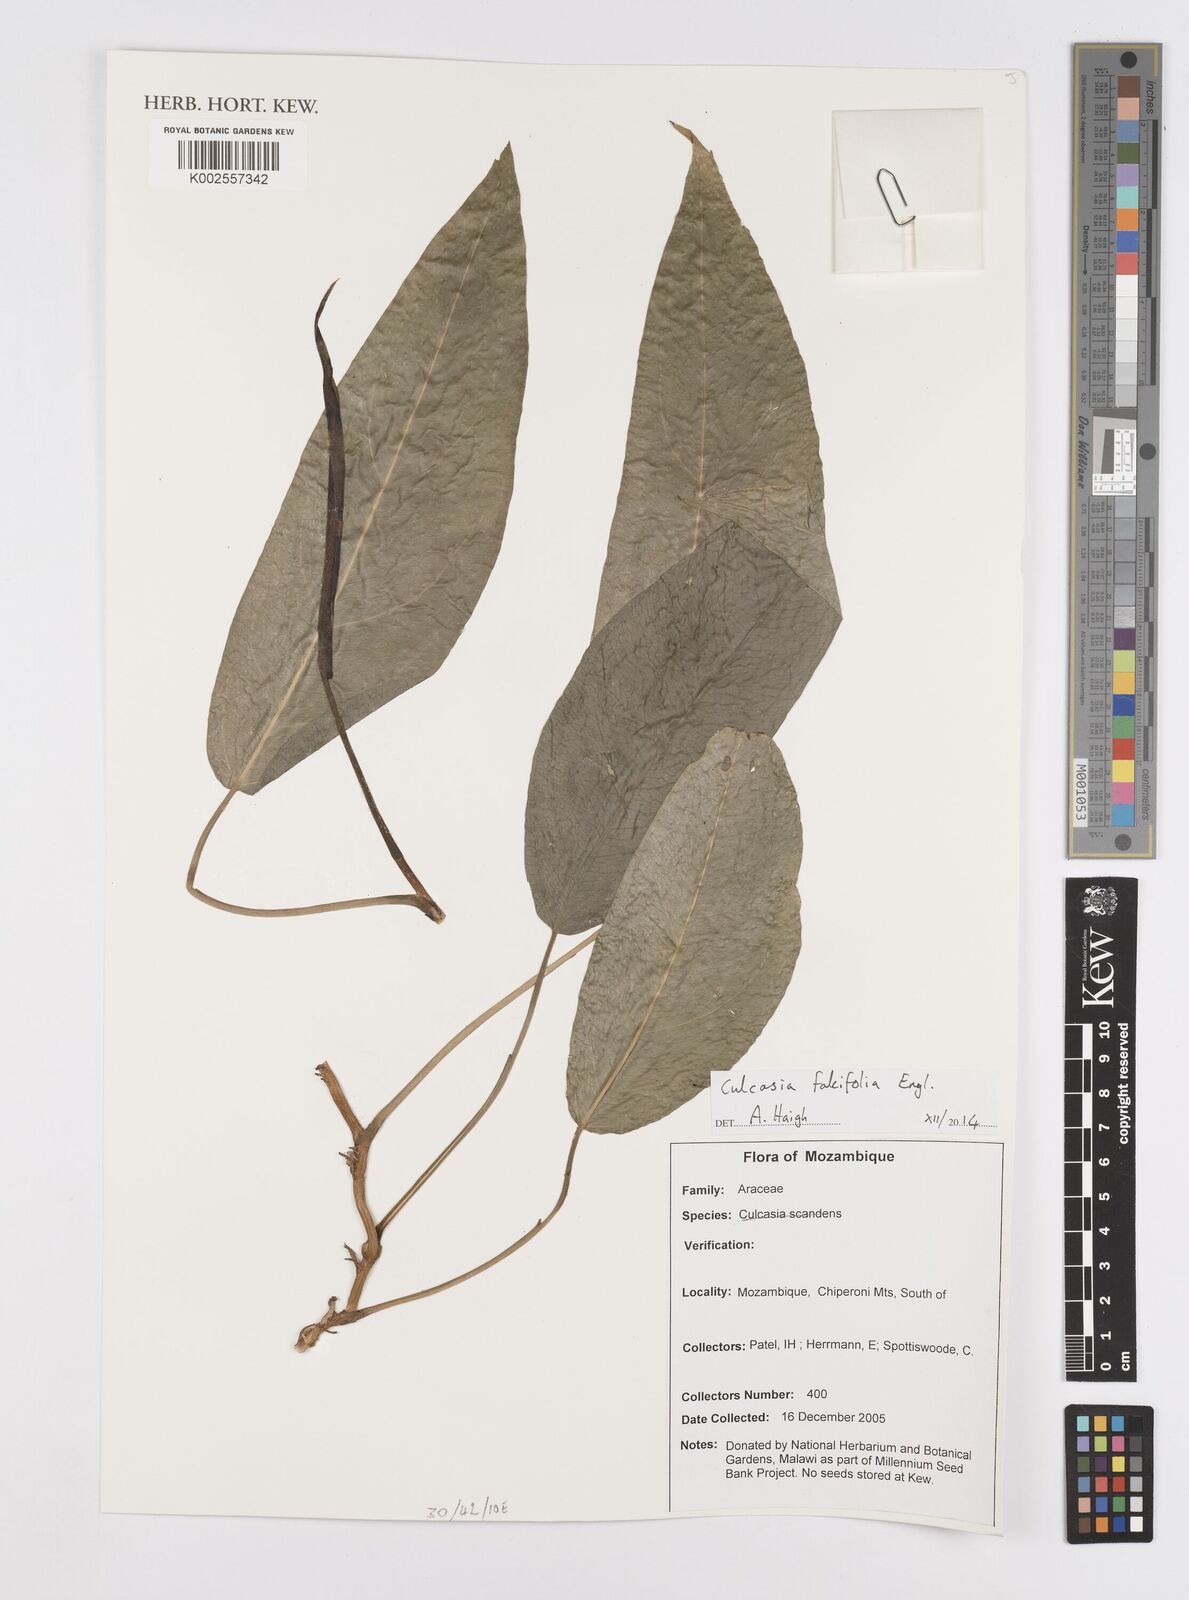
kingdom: Plantae
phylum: Tracheophyta
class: Liliopsida
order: Alismatales
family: Araceae
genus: Culcasia
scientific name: Culcasia falcifolia
